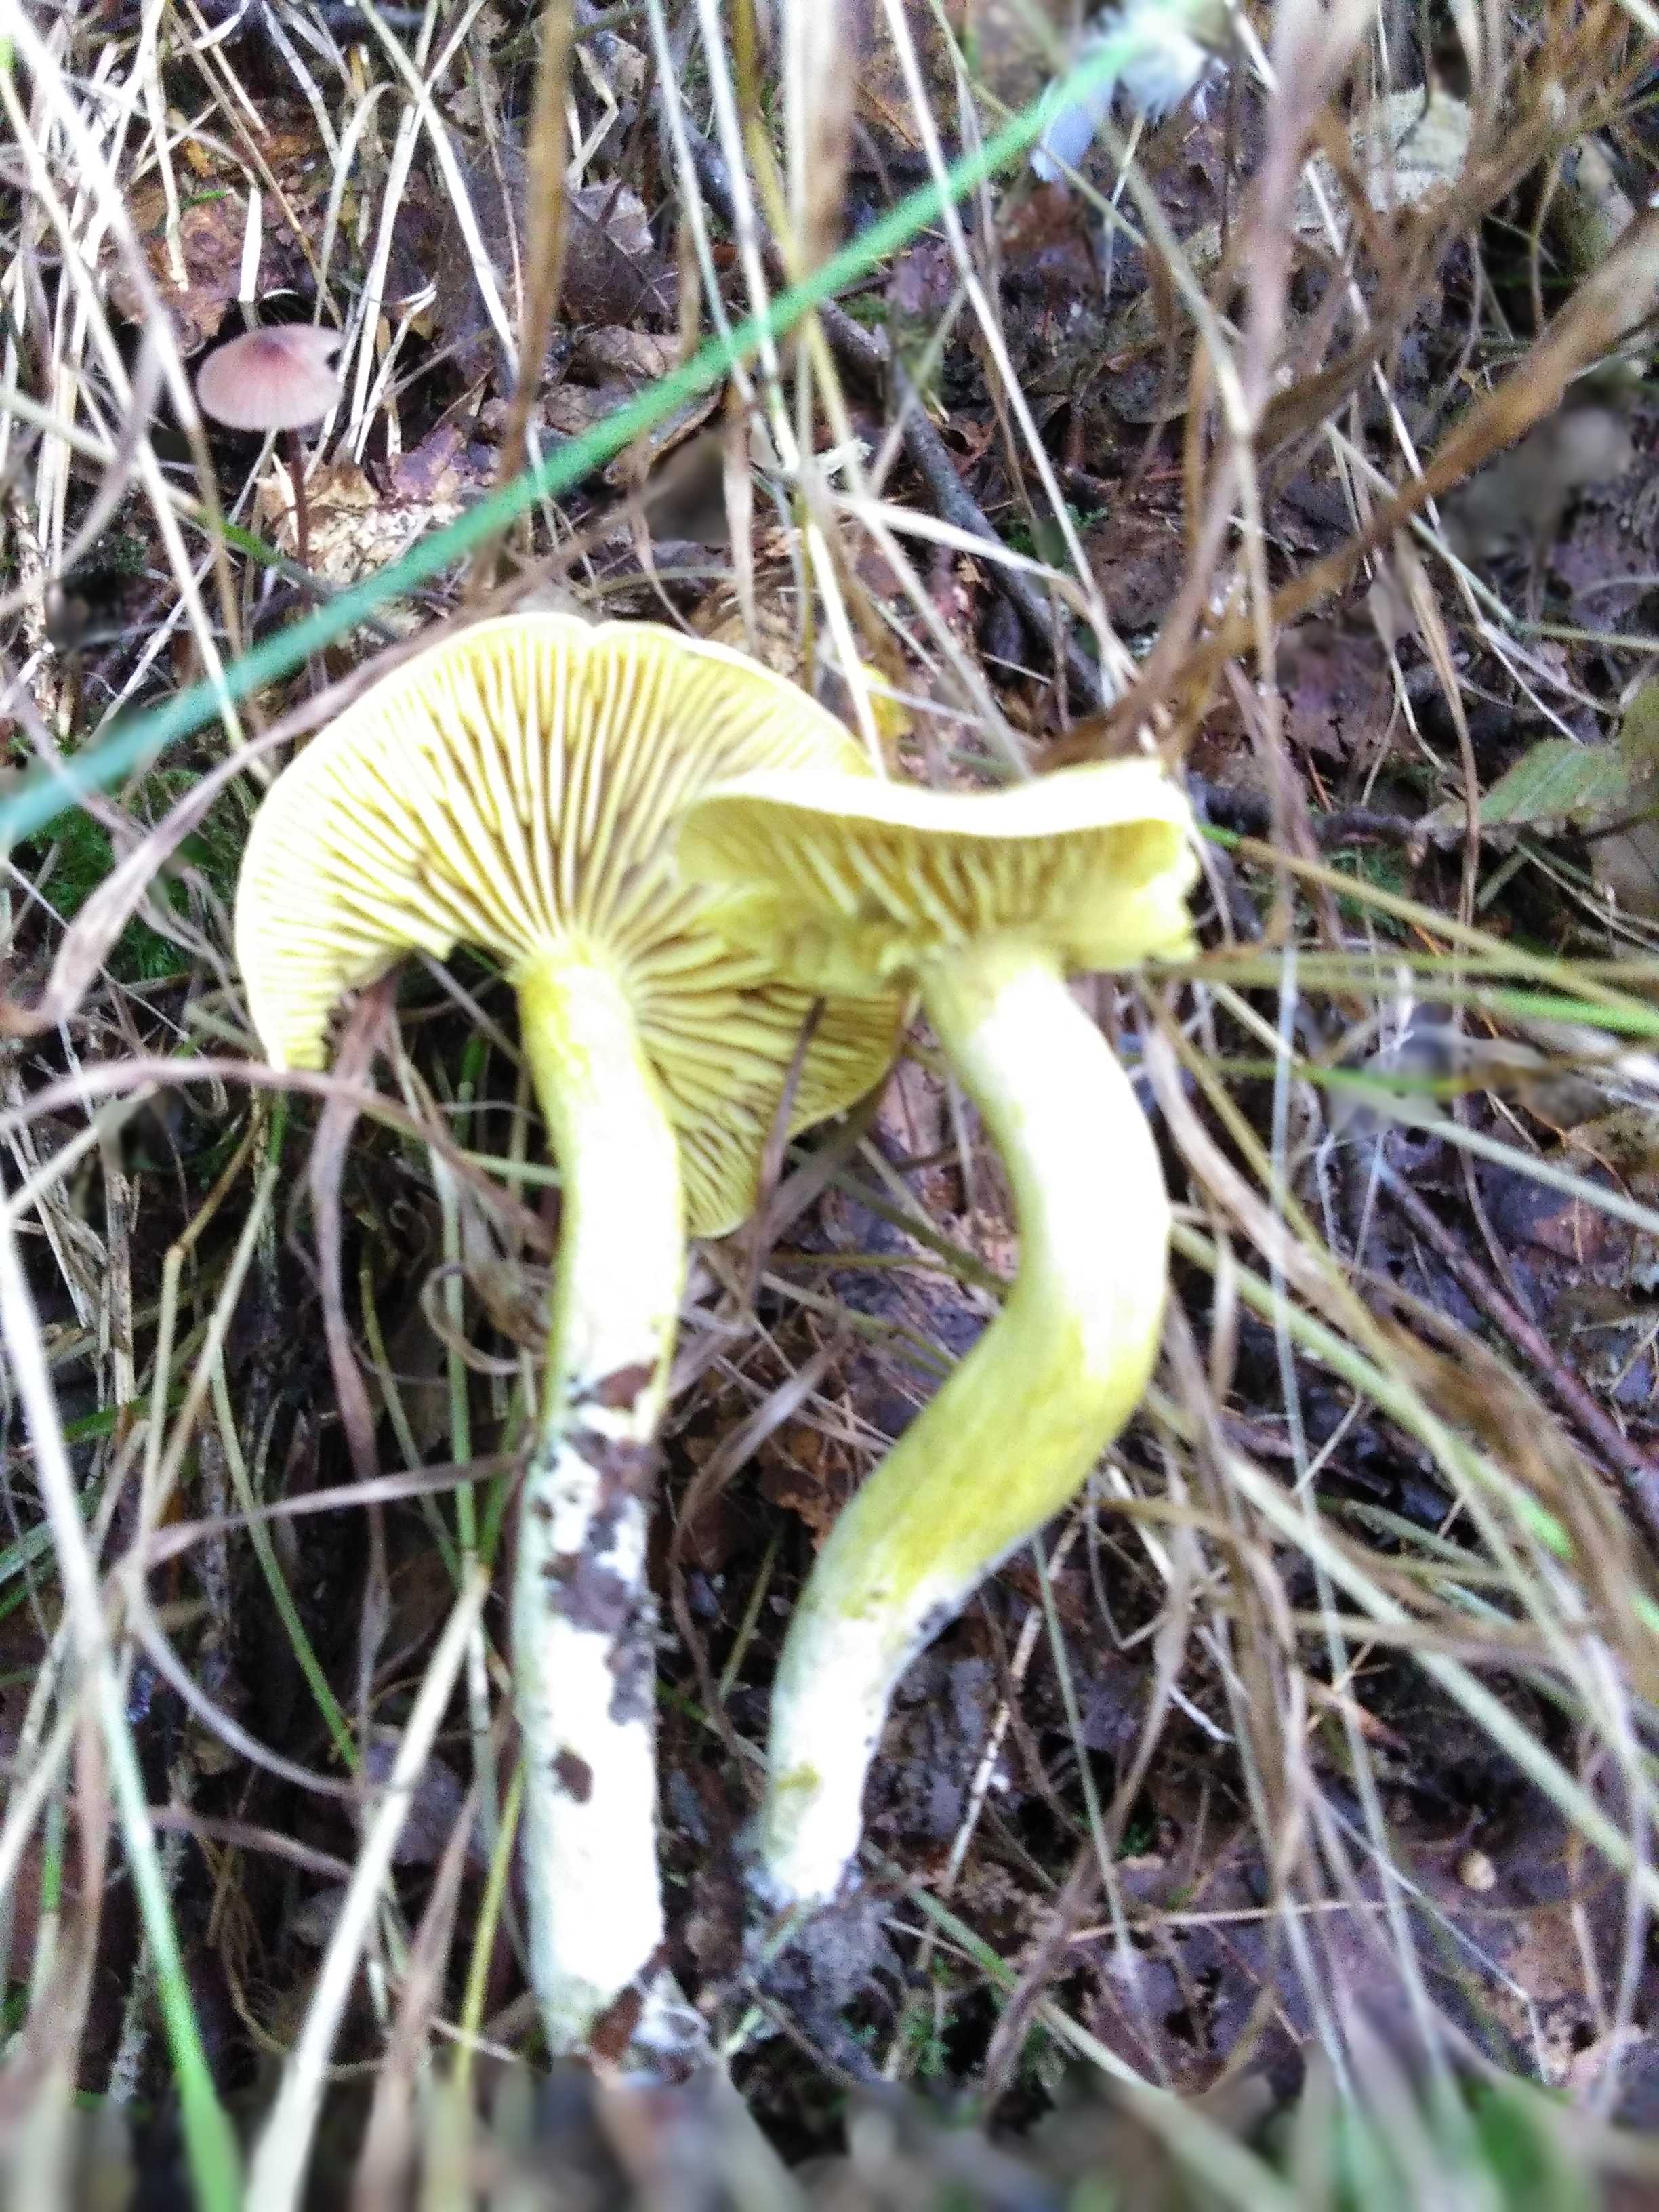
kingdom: Fungi
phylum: Basidiomycota
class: Agaricomycetes
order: Agaricales
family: Tricholomataceae
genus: Tricholoma
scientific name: Tricholoma sulphureum
